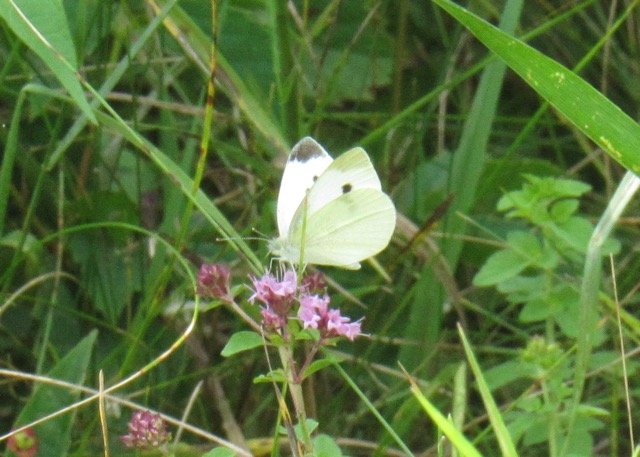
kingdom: Animalia
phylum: Arthropoda
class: Insecta
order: Lepidoptera
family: Pieridae
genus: Pieris
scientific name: Pieris rapae
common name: Cabbage White
